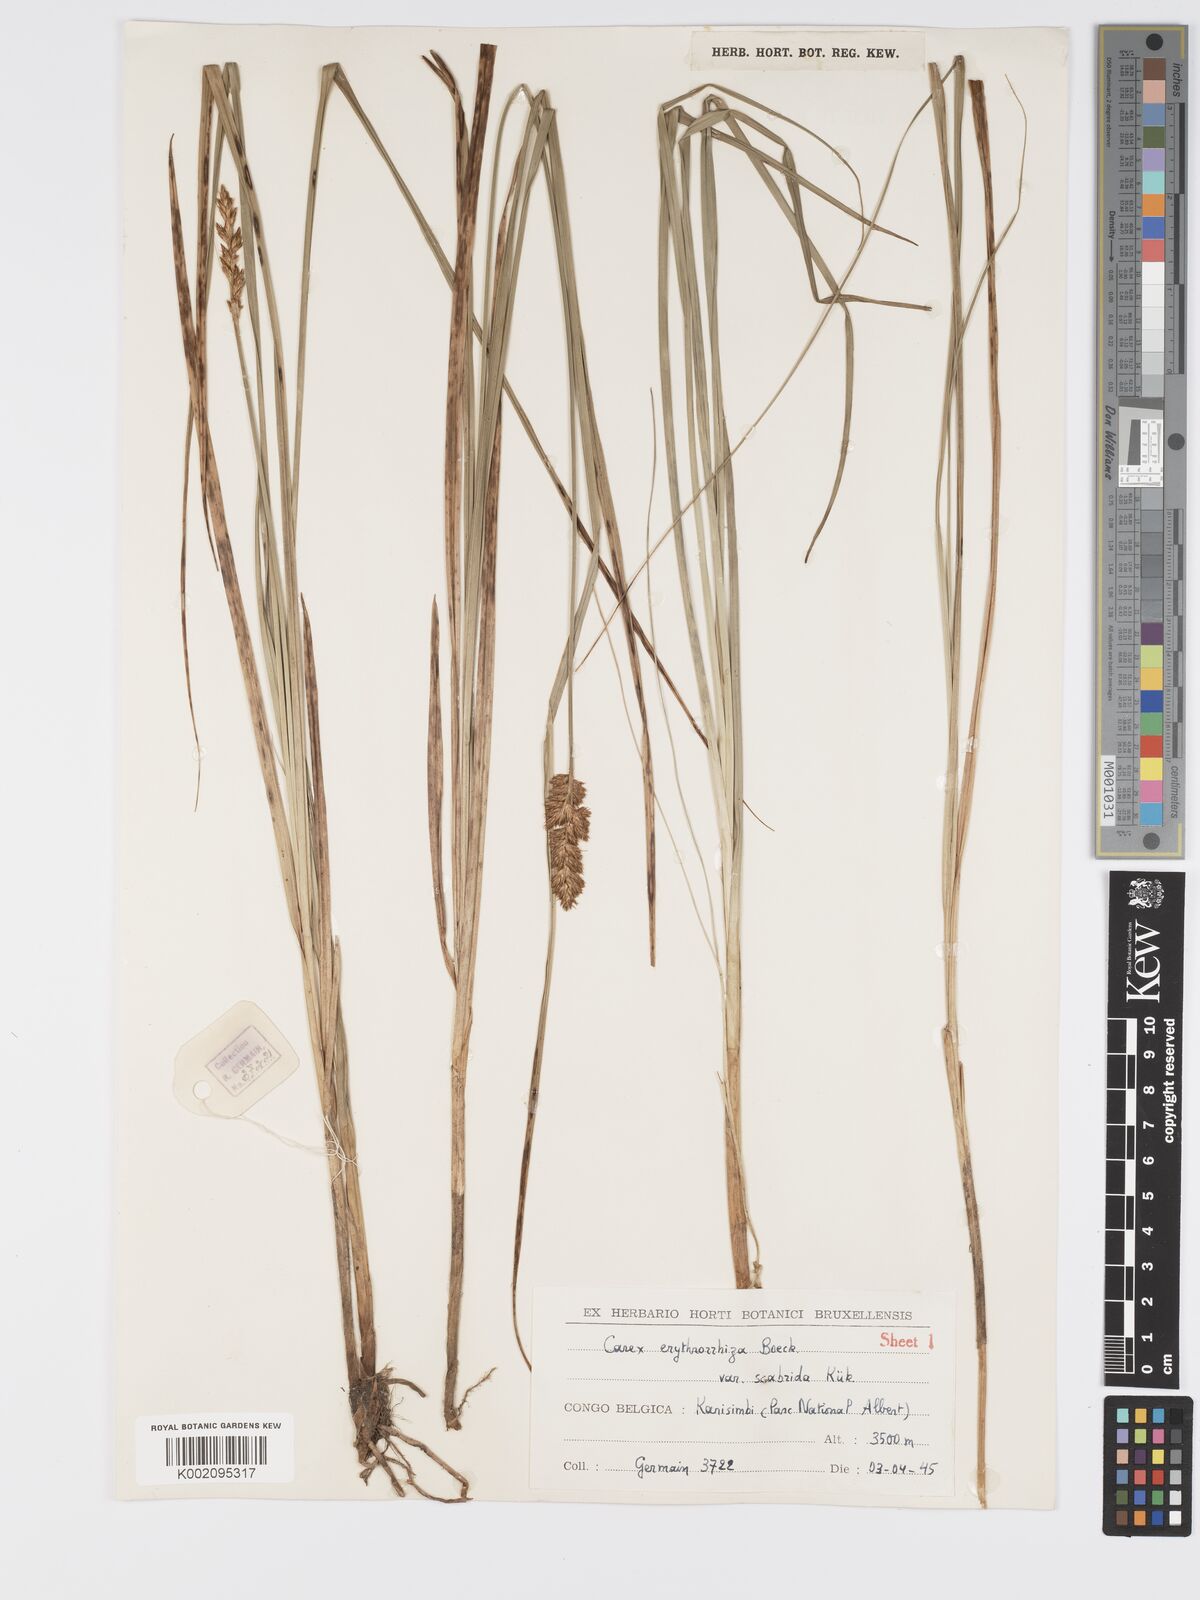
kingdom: Plantae
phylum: Tracheophyta
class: Liliopsida
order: Poales
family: Cyperaceae
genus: Carex
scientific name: Carex lycurus
